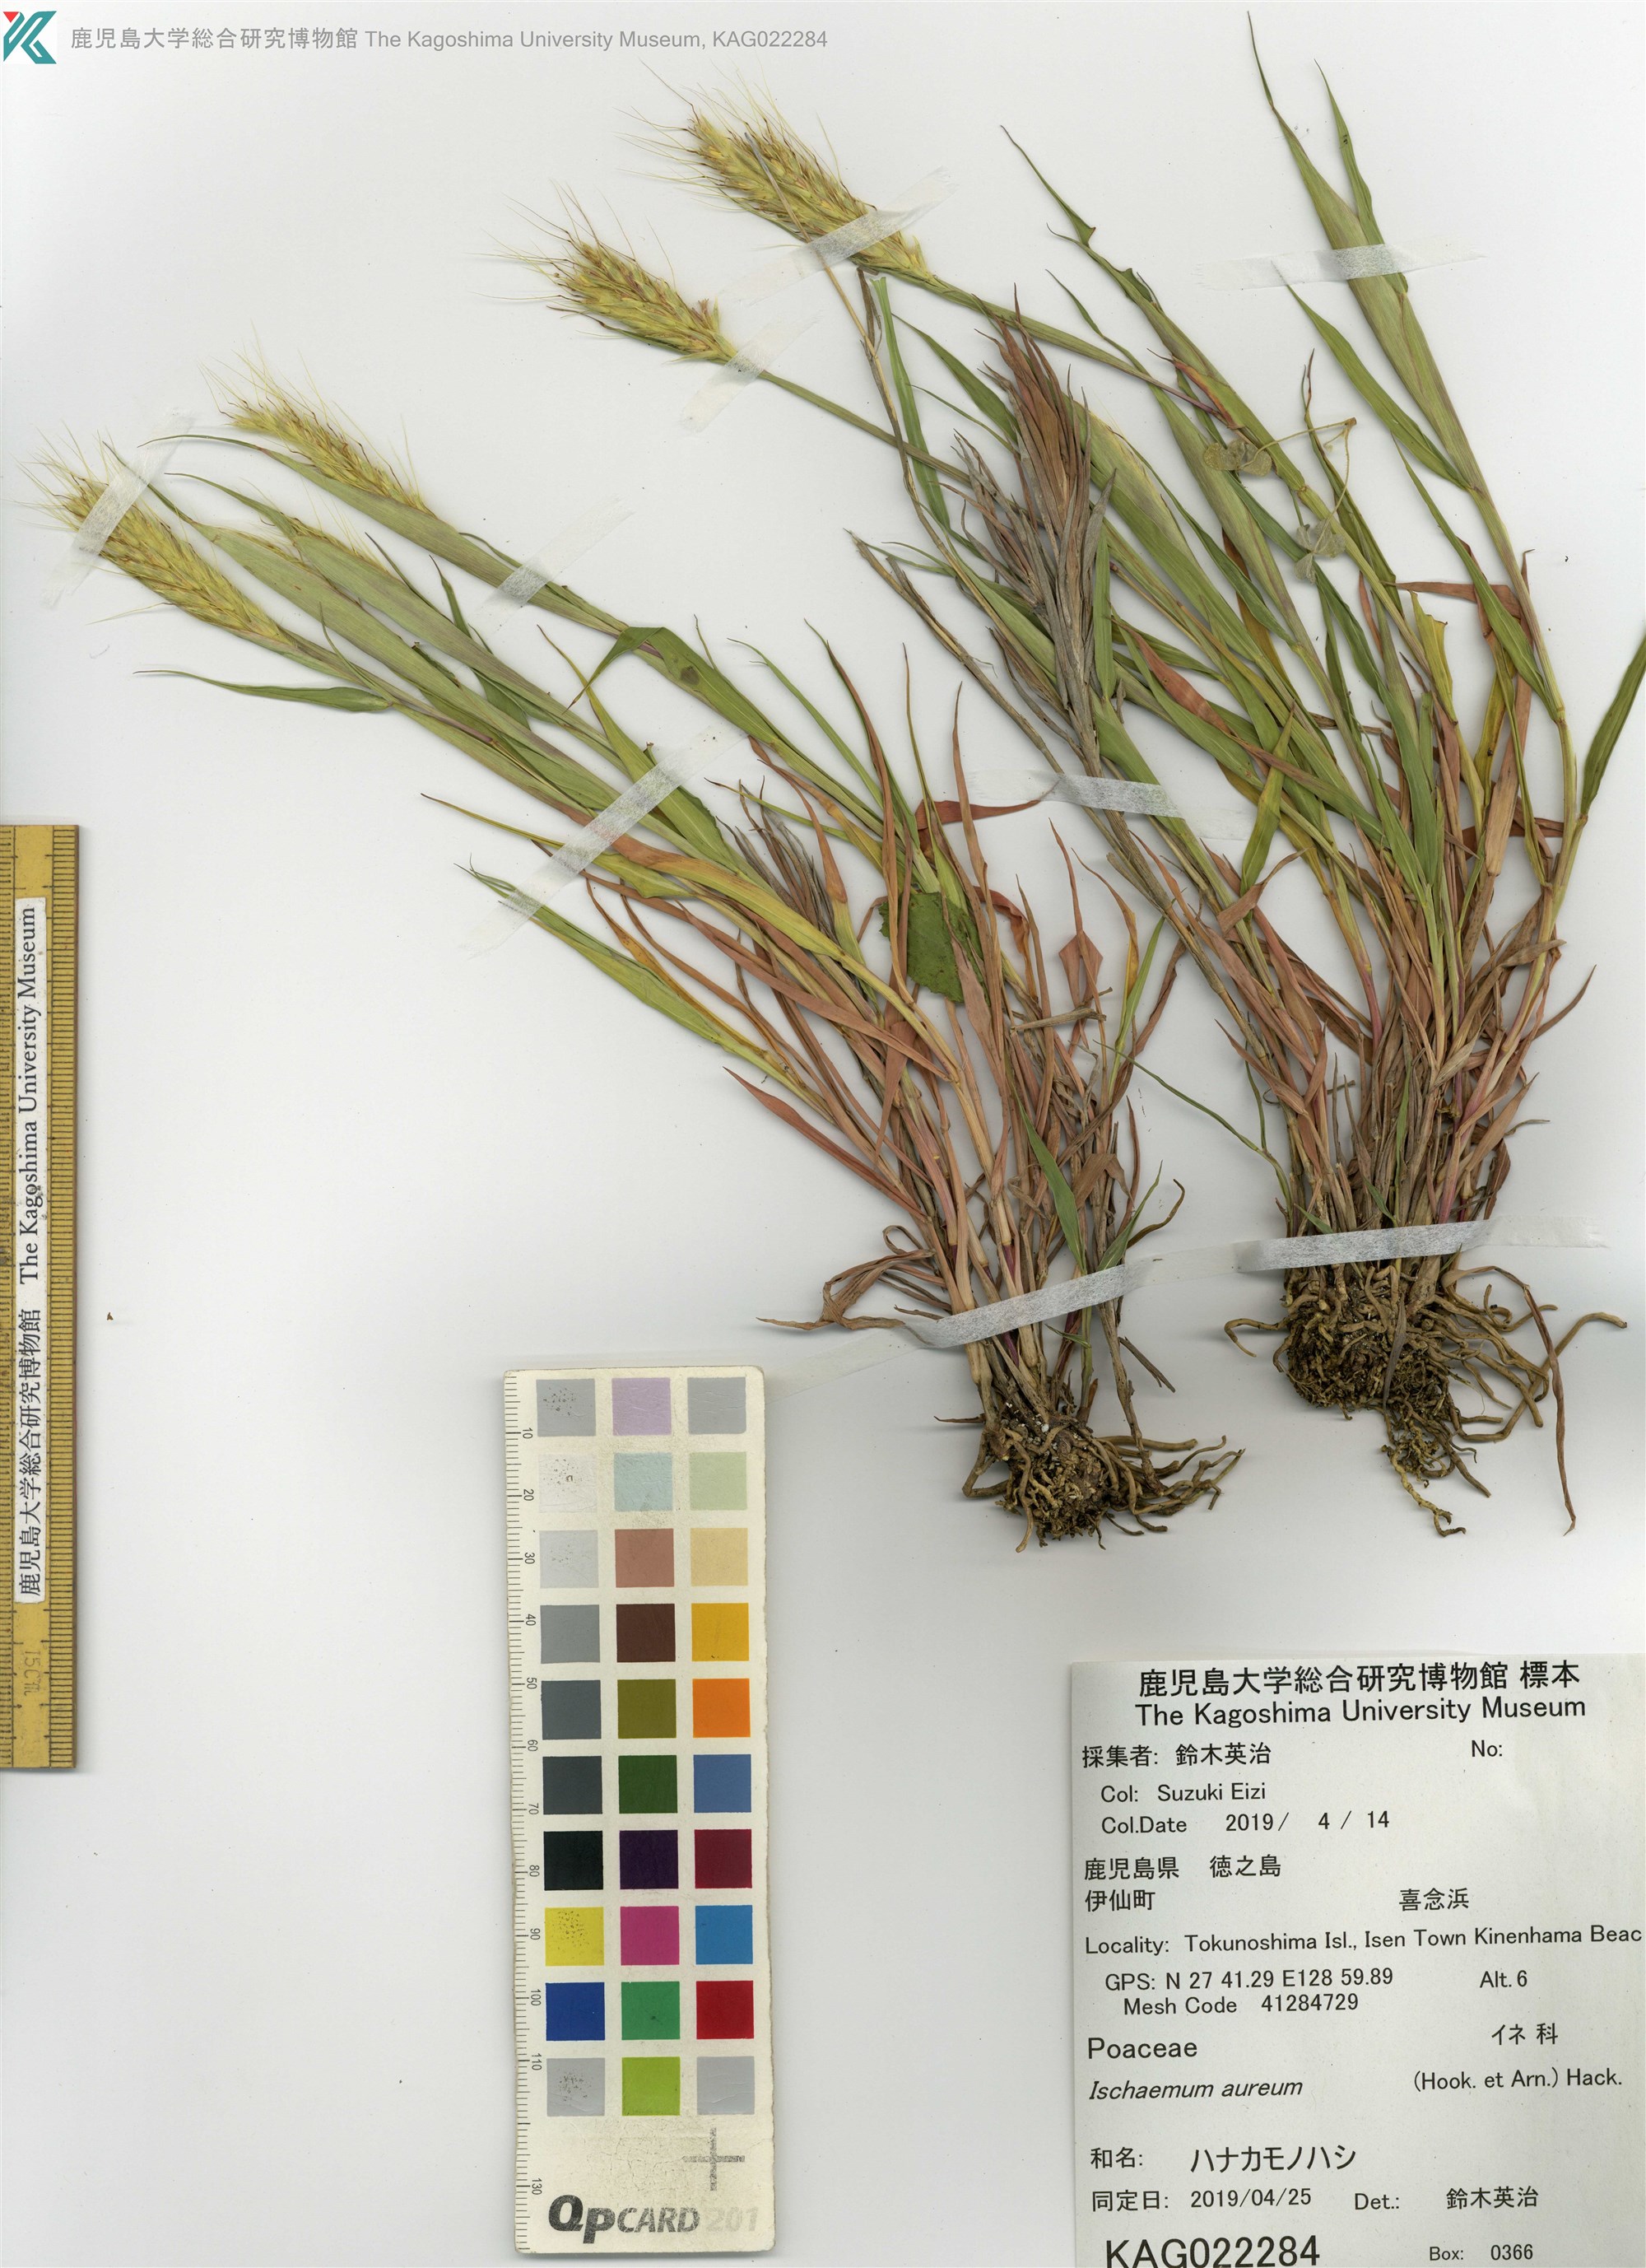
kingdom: Plantae
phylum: Tracheophyta
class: Liliopsida
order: Poales
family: Poaceae
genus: Ischaemum
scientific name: Ischaemum aureum
